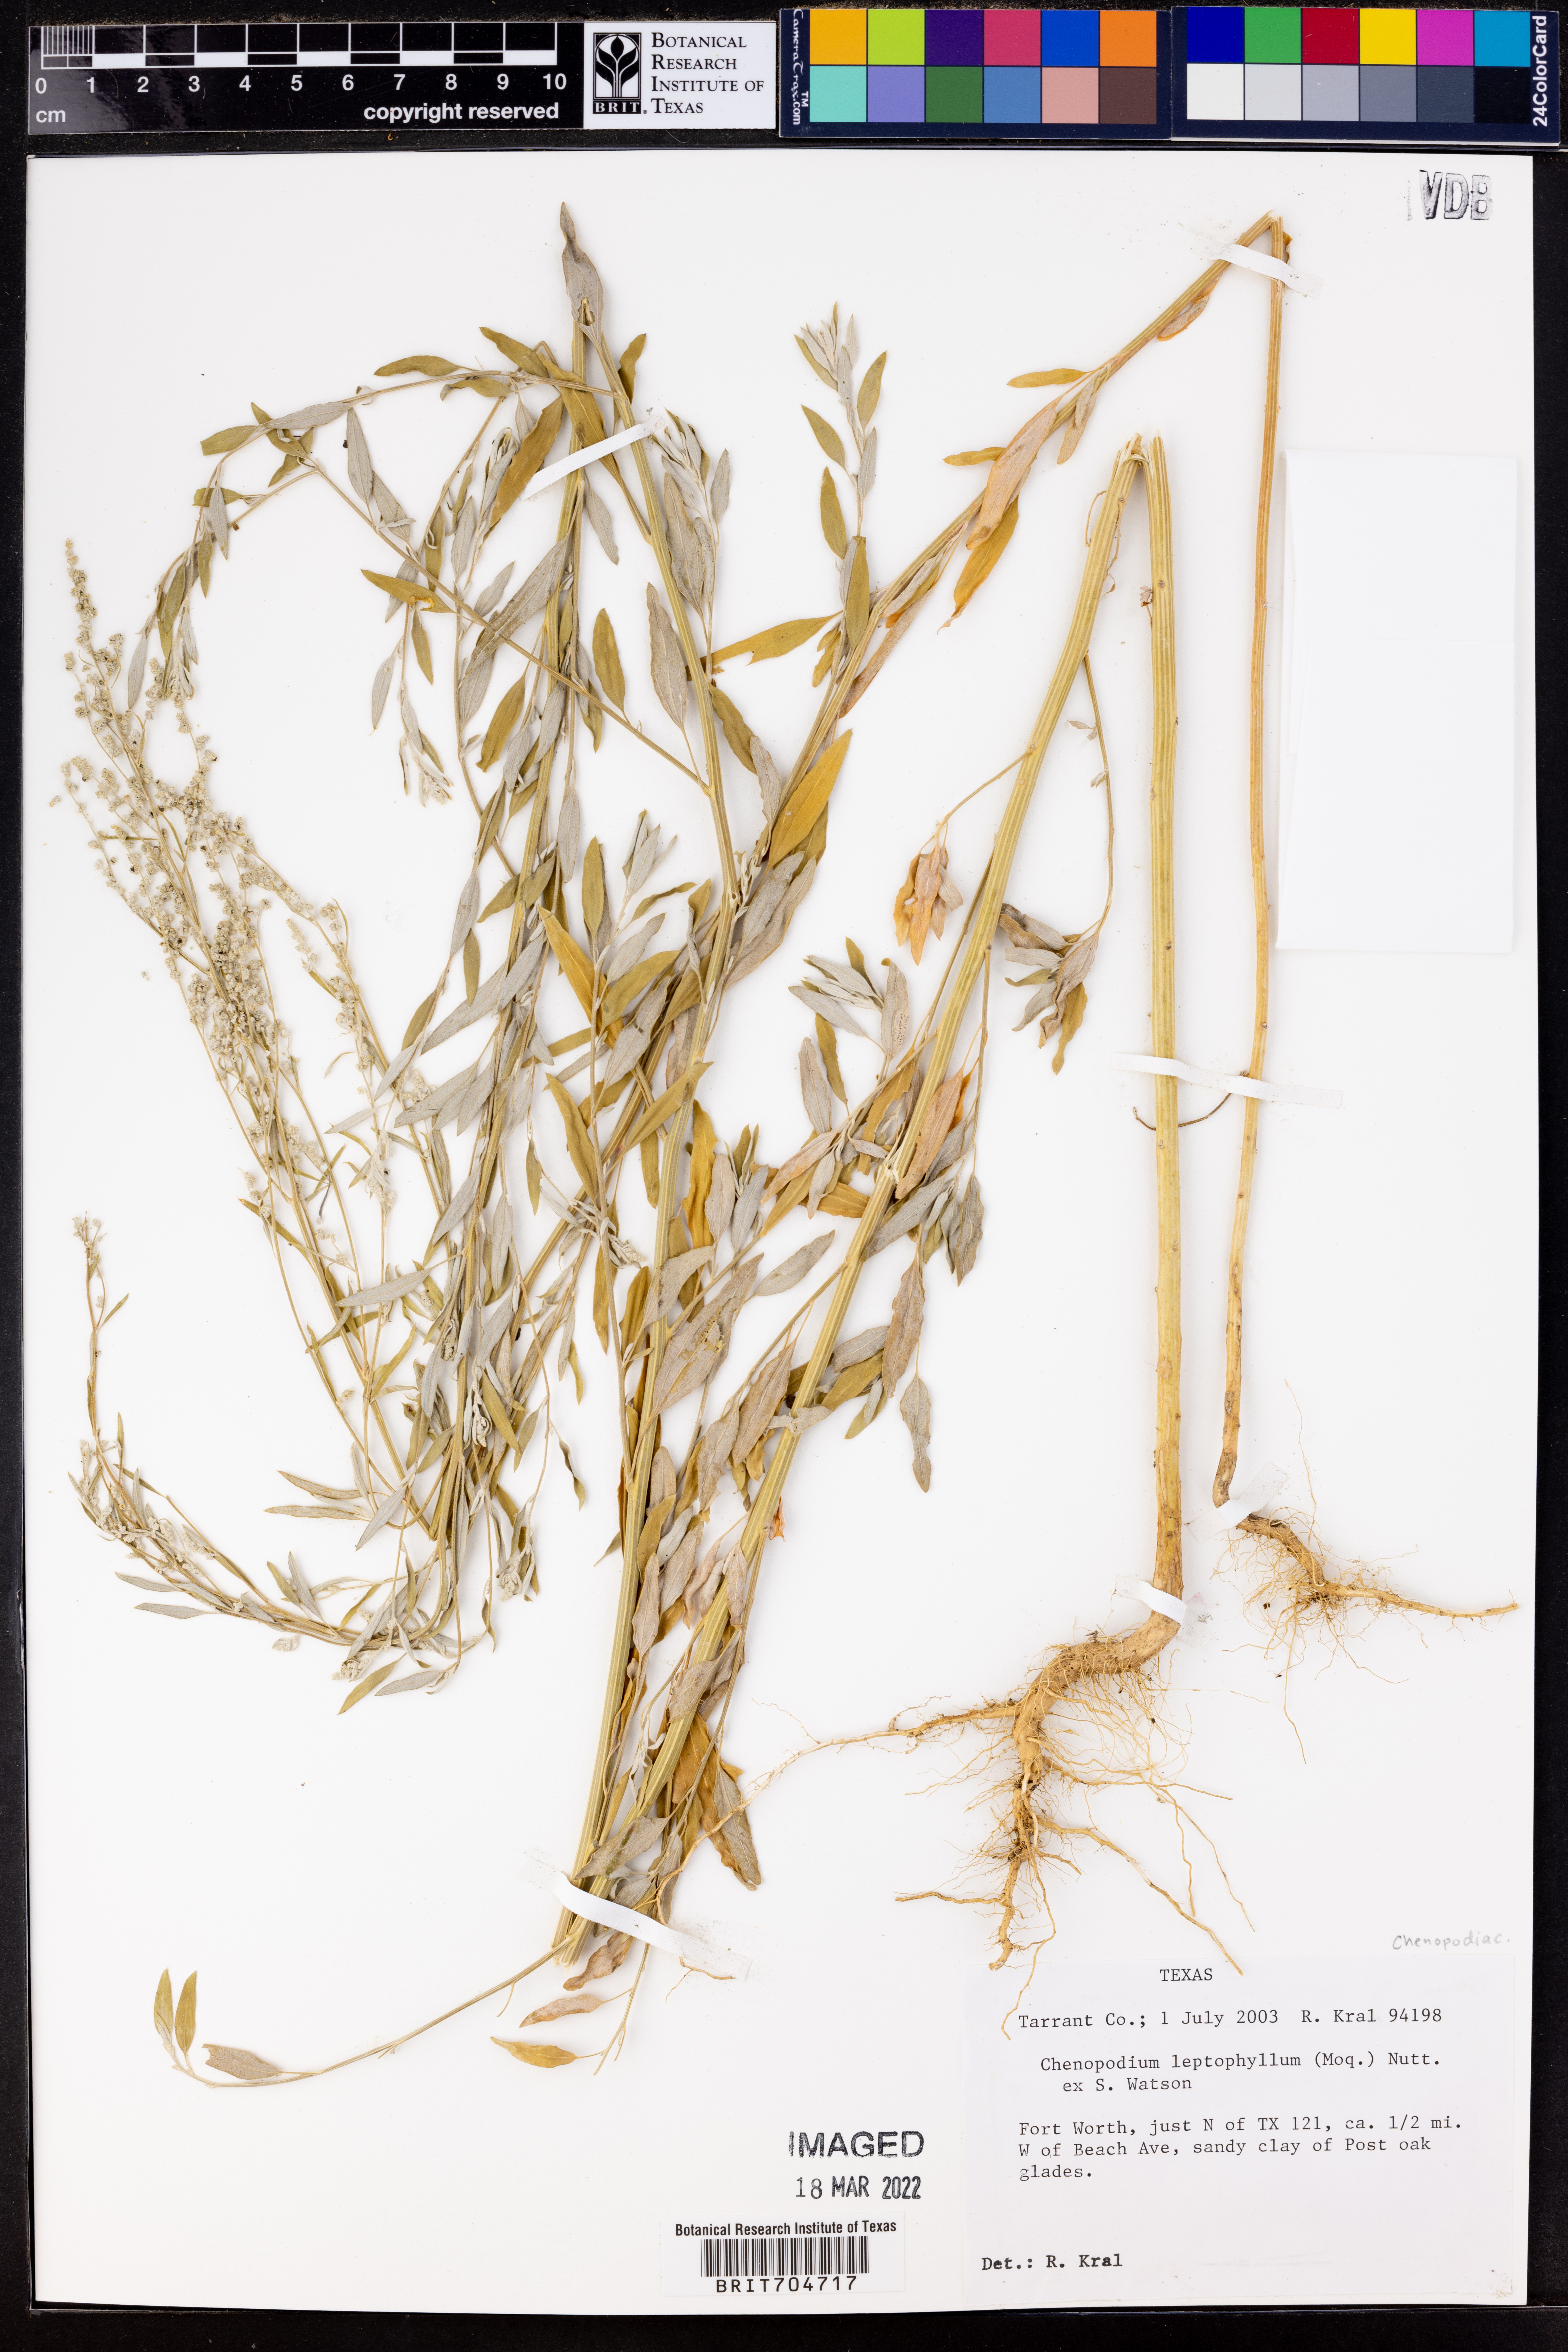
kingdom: Plantae
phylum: Tracheophyta
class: Magnoliopsida
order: Caryophyllales
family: Amaranthaceae
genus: Chenopodium
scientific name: Chenopodium leptophyllum
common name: Narrow-leaf goosefoot
